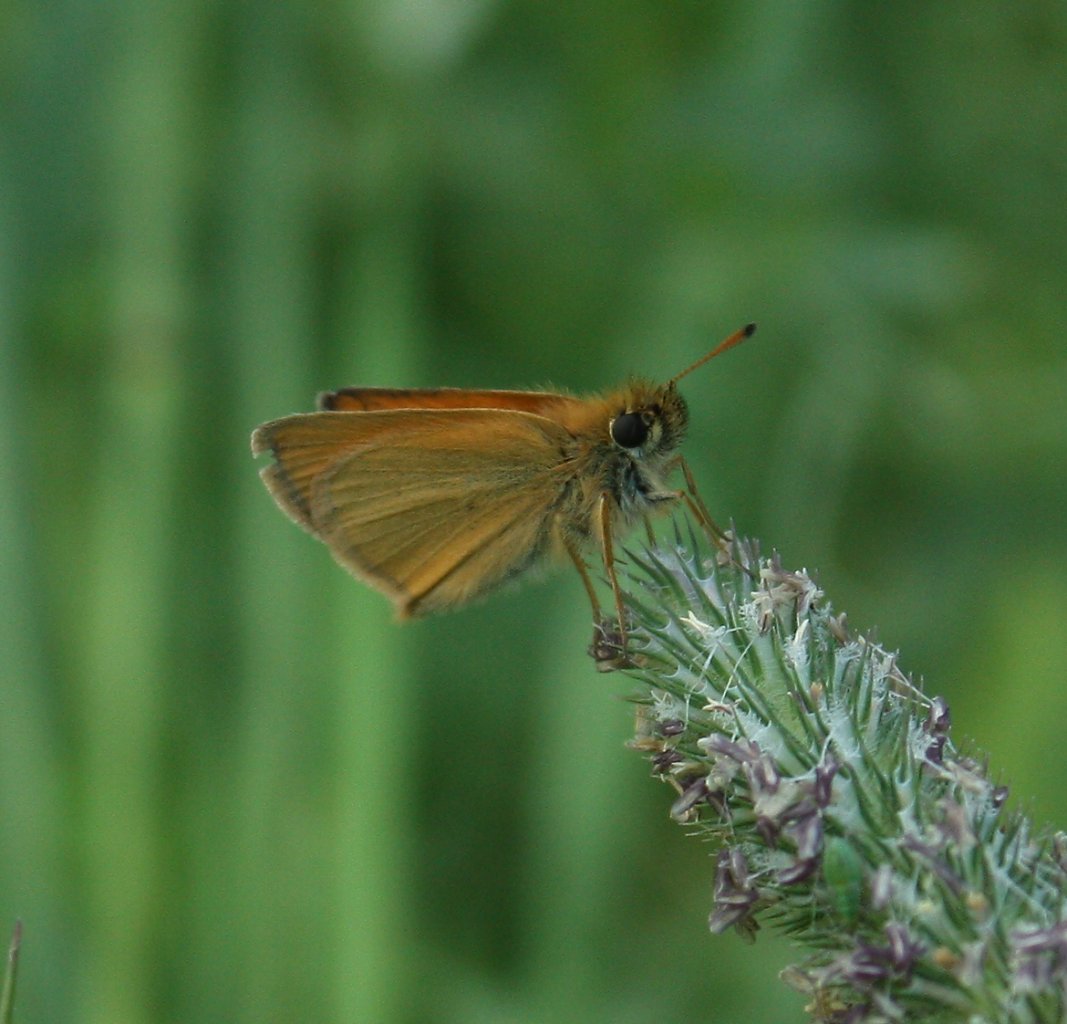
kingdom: Animalia
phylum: Arthropoda
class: Insecta
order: Lepidoptera
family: Hesperiidae
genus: Thymelicus
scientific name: Thymelicus lineola
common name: European Skipper
